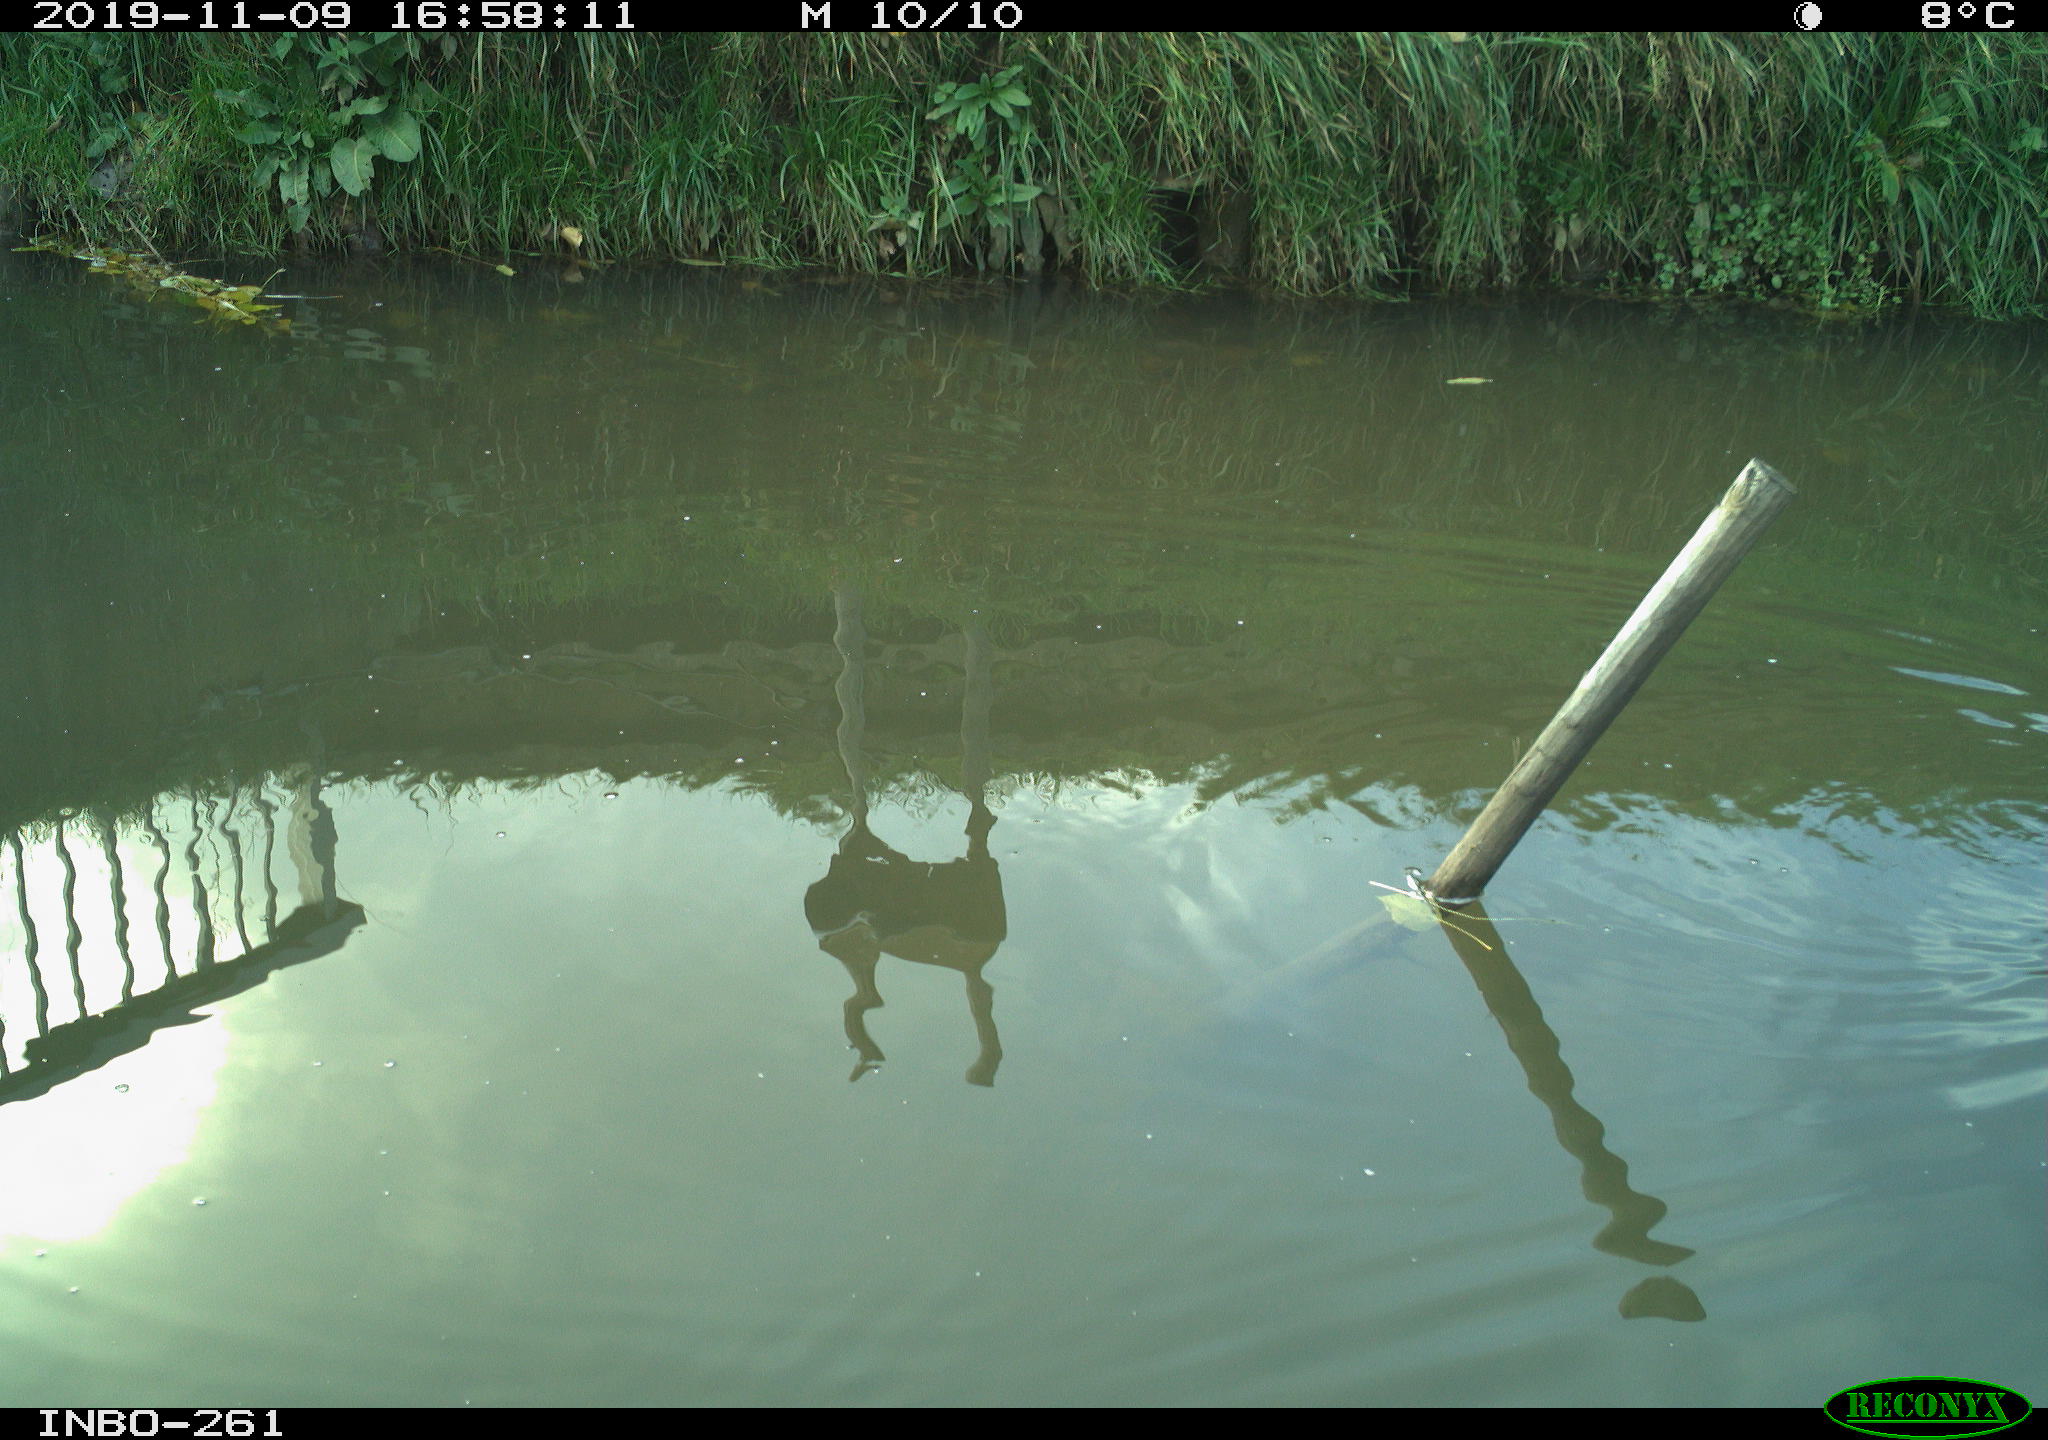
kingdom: Animalia
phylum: Chordata
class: Aves
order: Gruiformes
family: Rallidae
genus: Gallinula
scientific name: Gallinula chloropus
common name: Common moorhen
